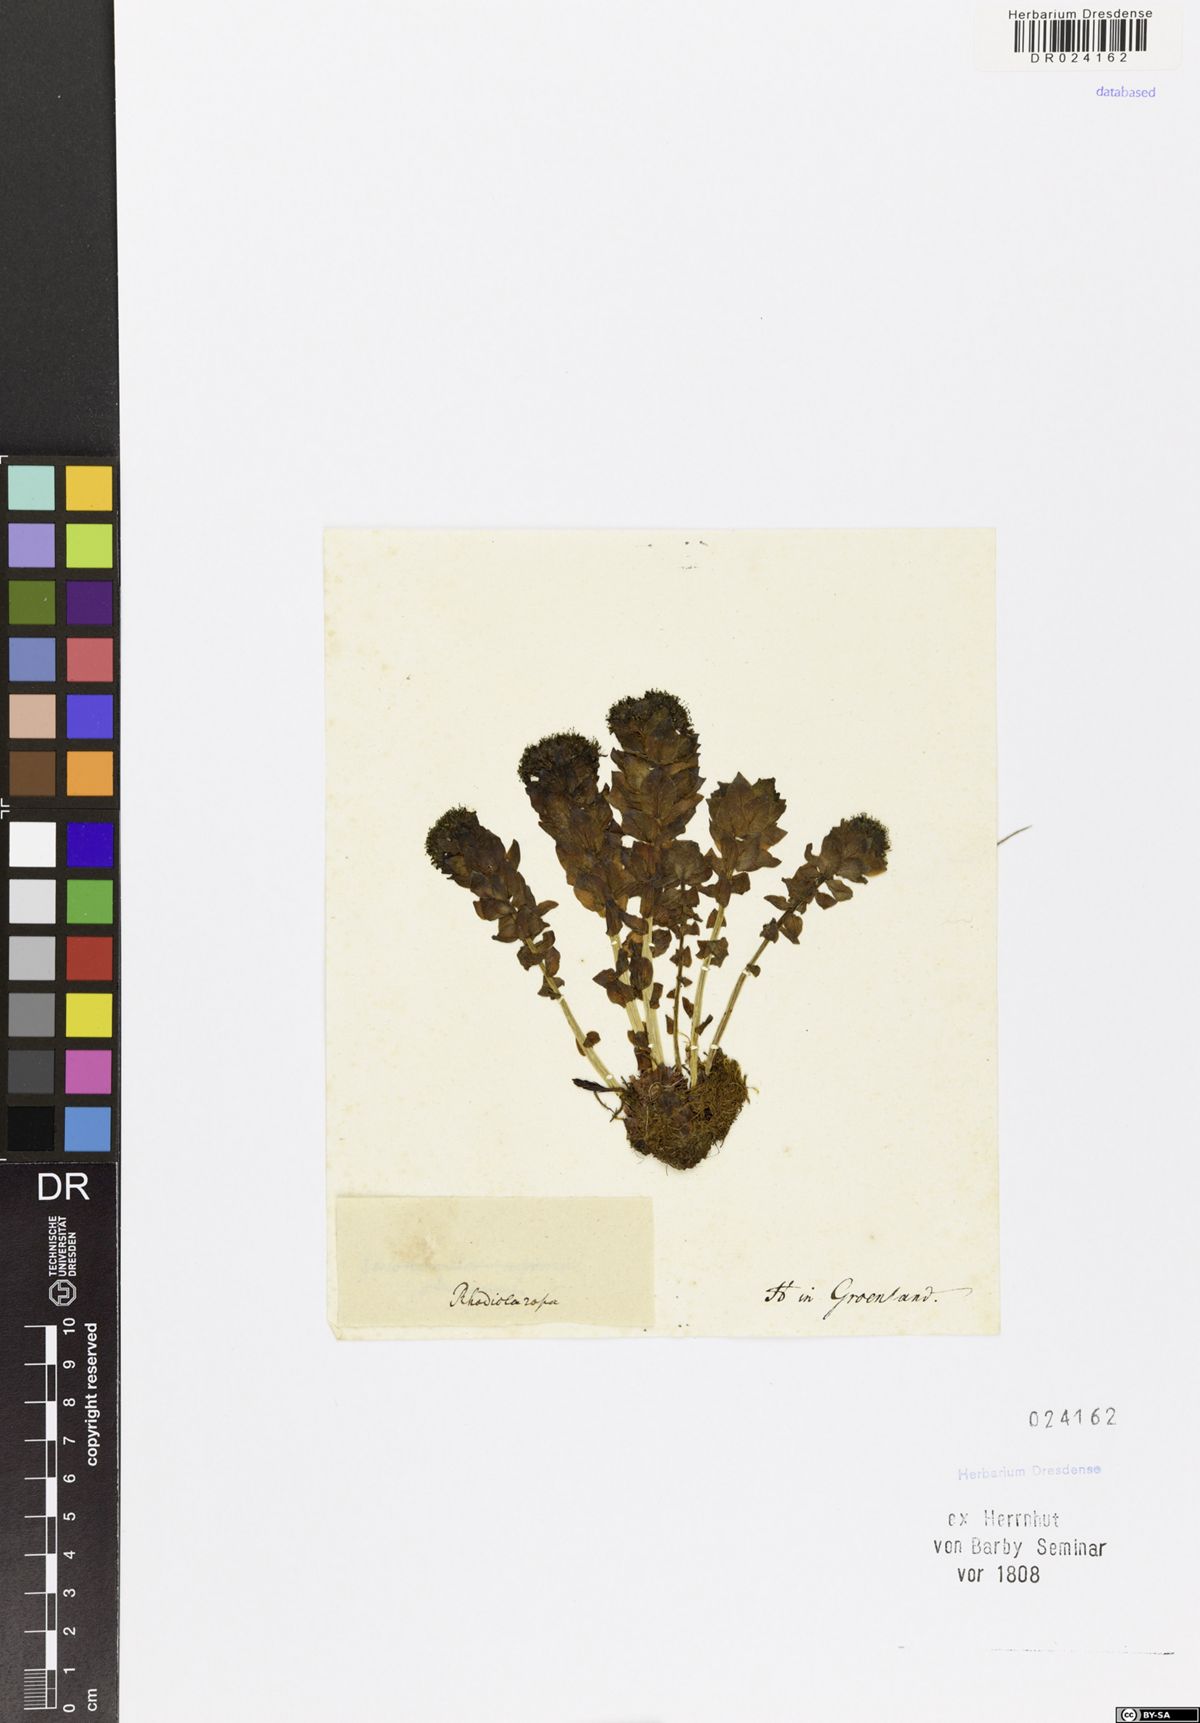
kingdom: Plantae
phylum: Tracheophyta
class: Magnoliopsida
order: Saxifragales
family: Crassulaceae
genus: Rhodiola
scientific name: Rhodiola rosea
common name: Roseroot
